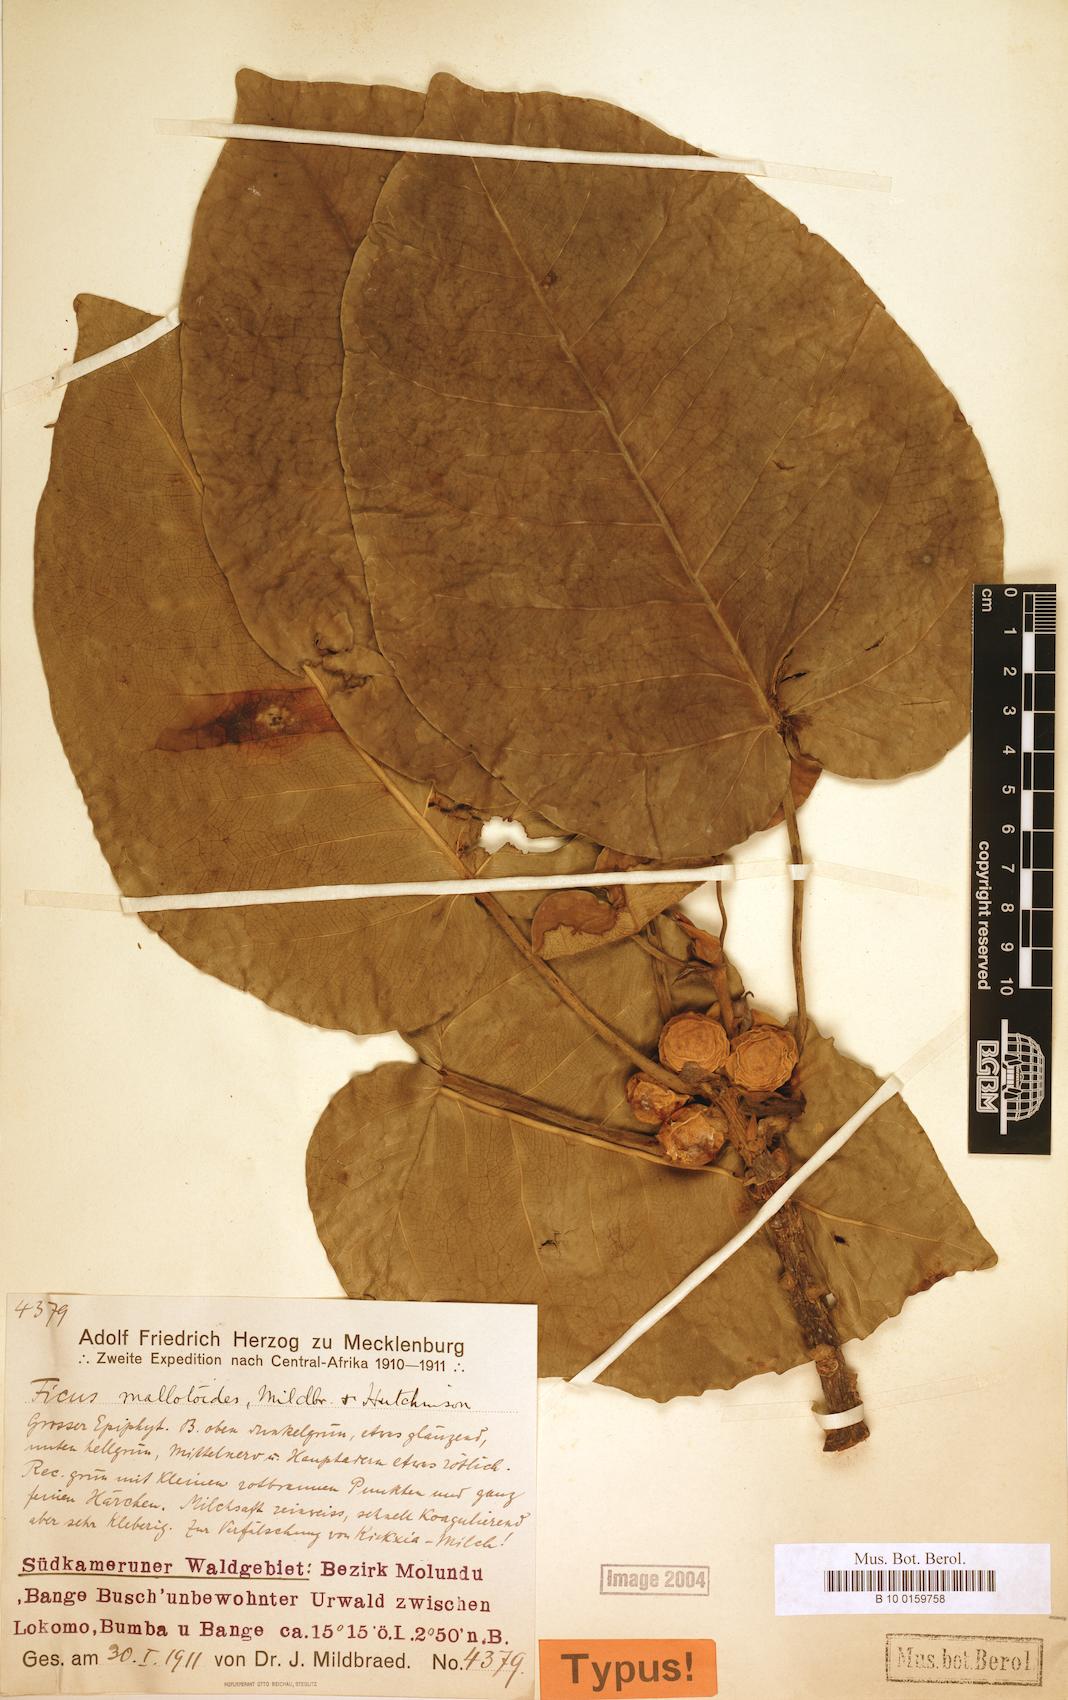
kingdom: Plantae
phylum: Tracheophyta
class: Magnoliopsida
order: Rosales
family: Moraceae
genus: Ficus
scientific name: Ficus calyptrata
